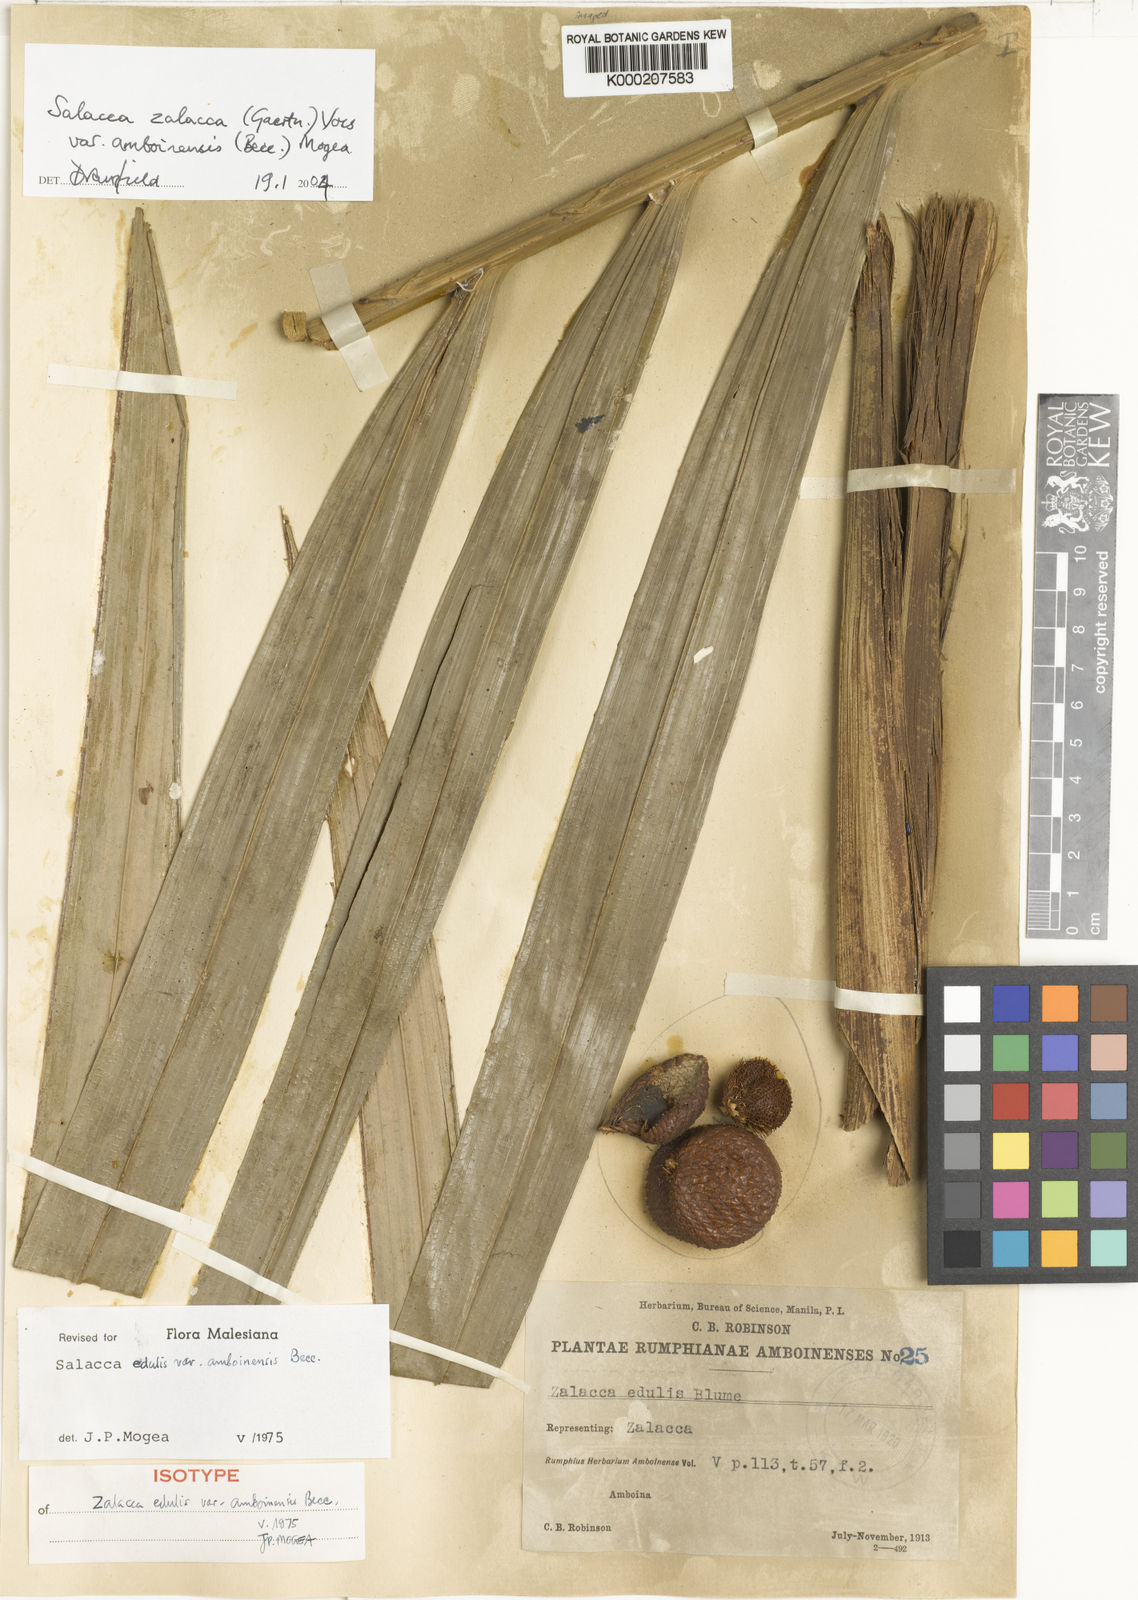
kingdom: Plantae
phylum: Tracheophyta
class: Liliopsida
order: Arecales
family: Arecaceae
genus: Salacca
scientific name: Salacca zalacca
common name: Salak
